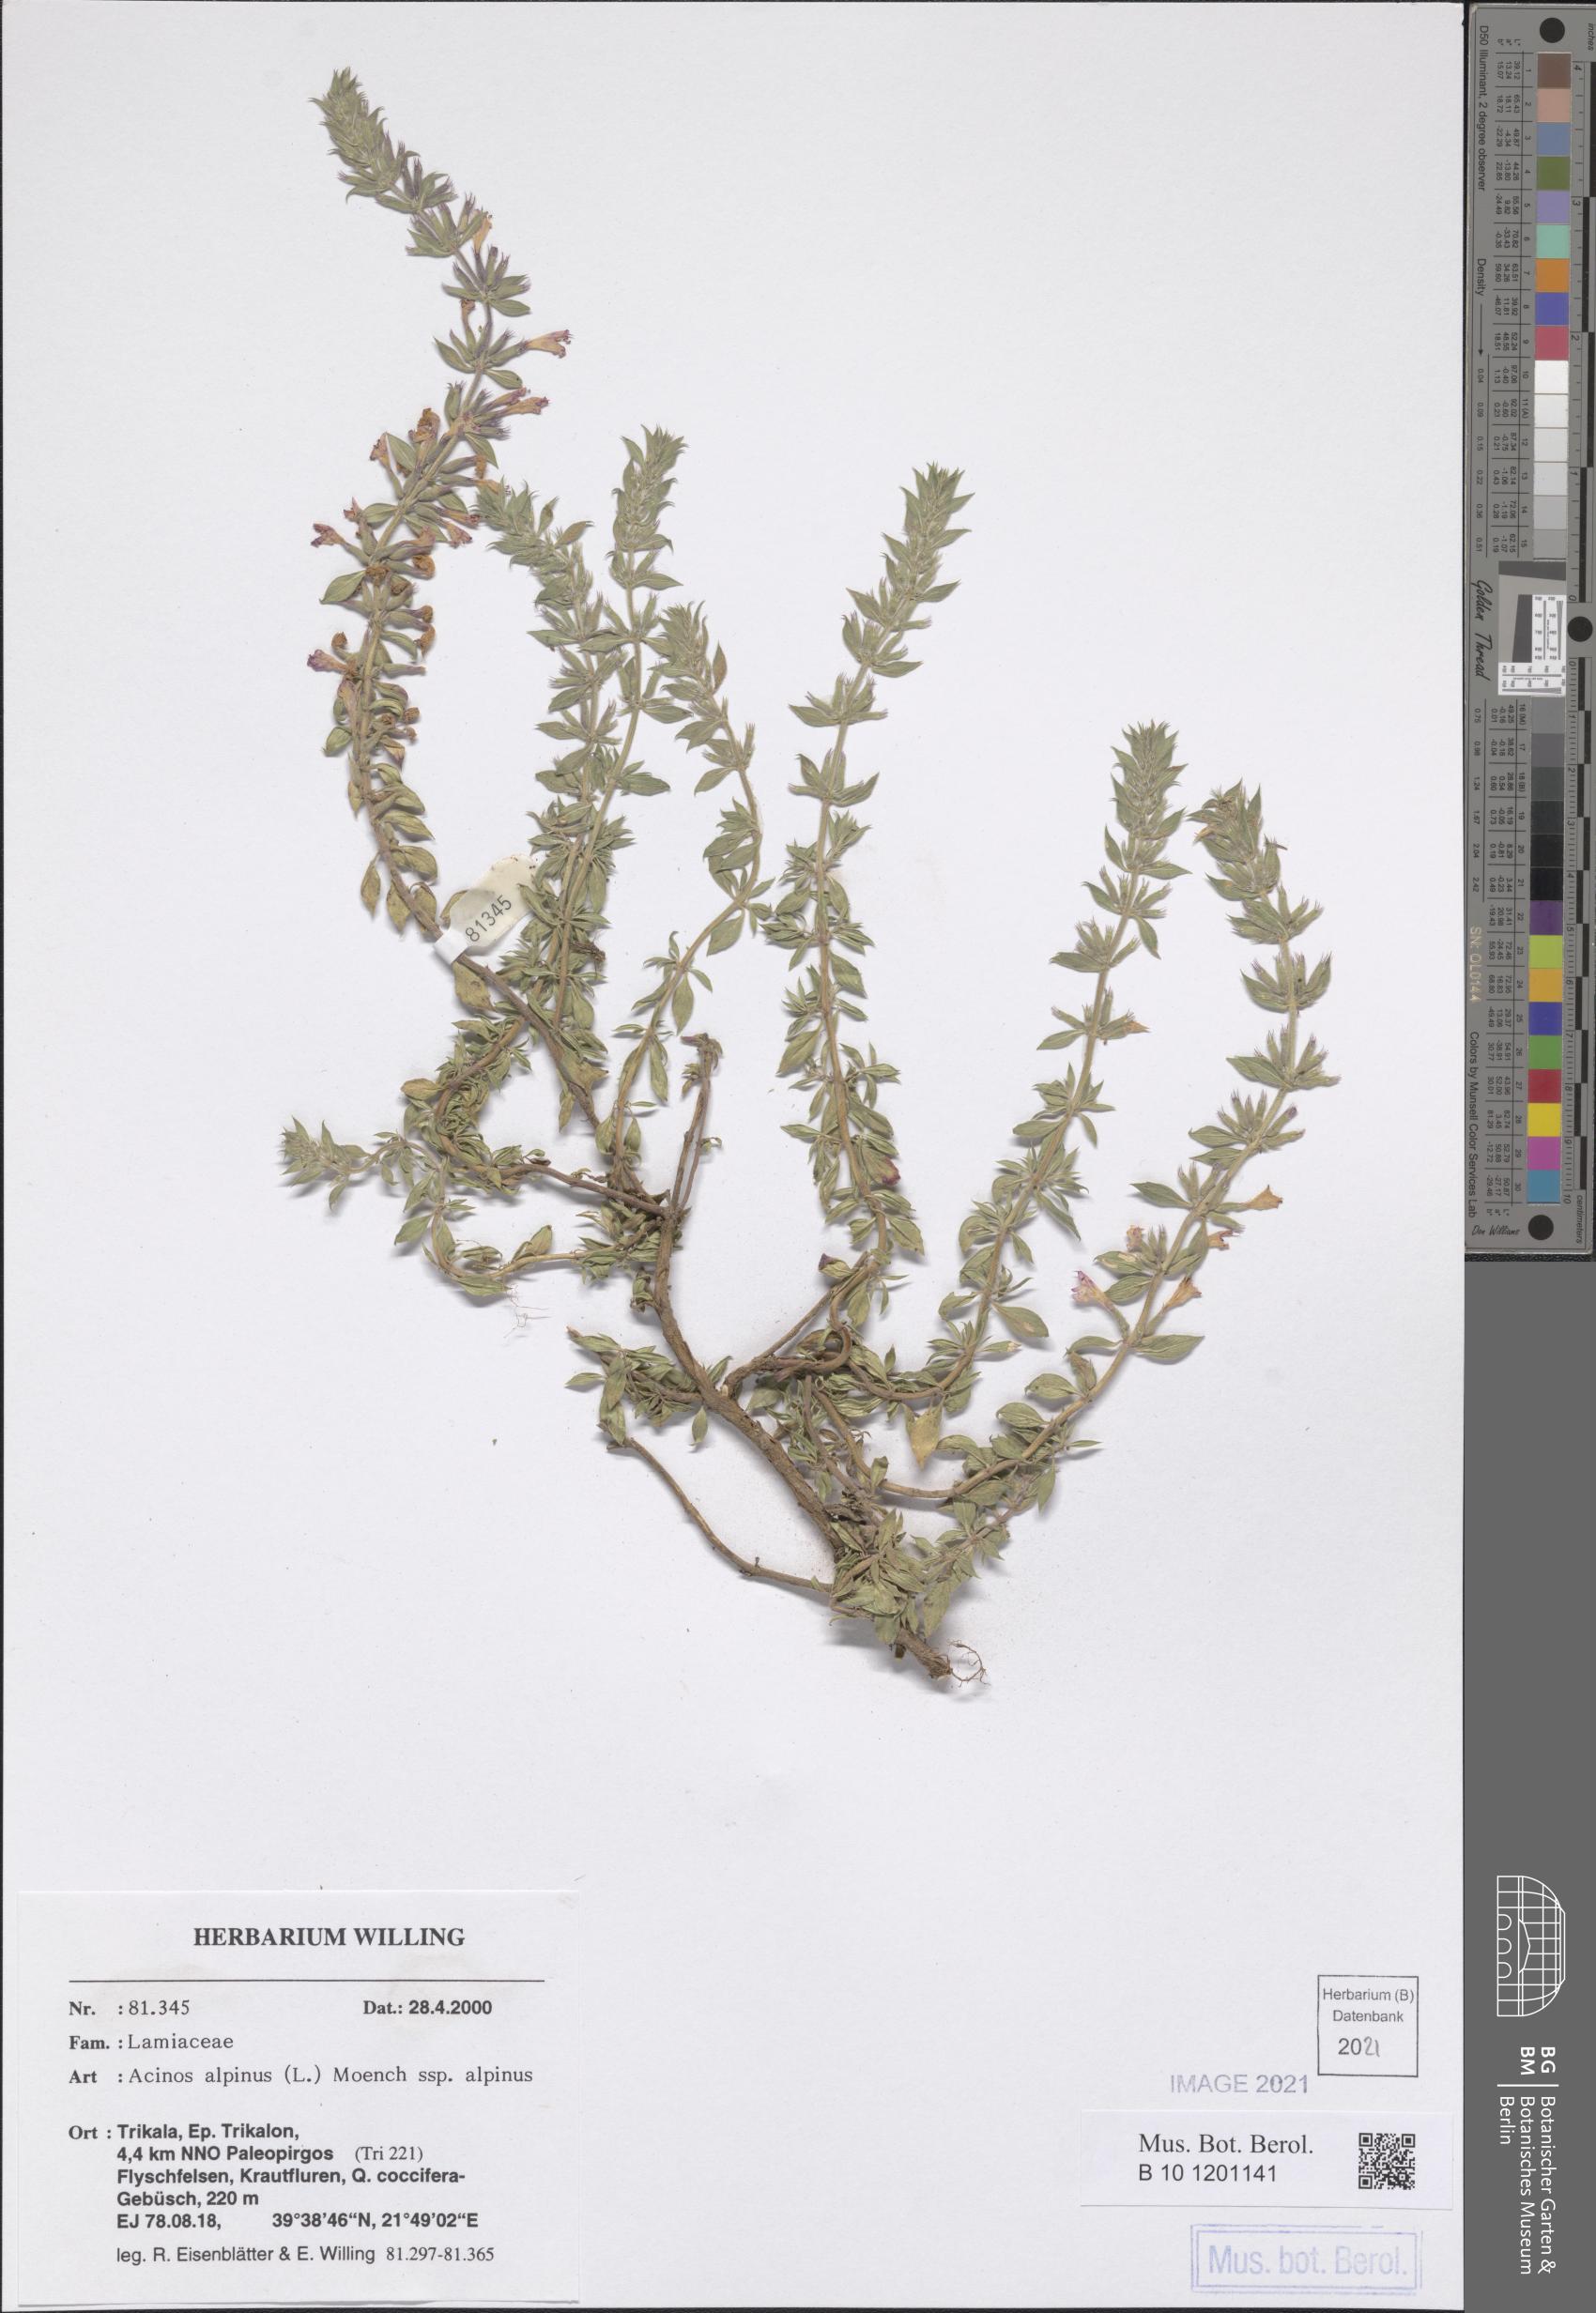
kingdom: Plantae
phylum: Tracheophyta
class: Magnoliopsida
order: Lamiales
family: Lamiaceae
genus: Clinopodium
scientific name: Clinopodium alpinum
